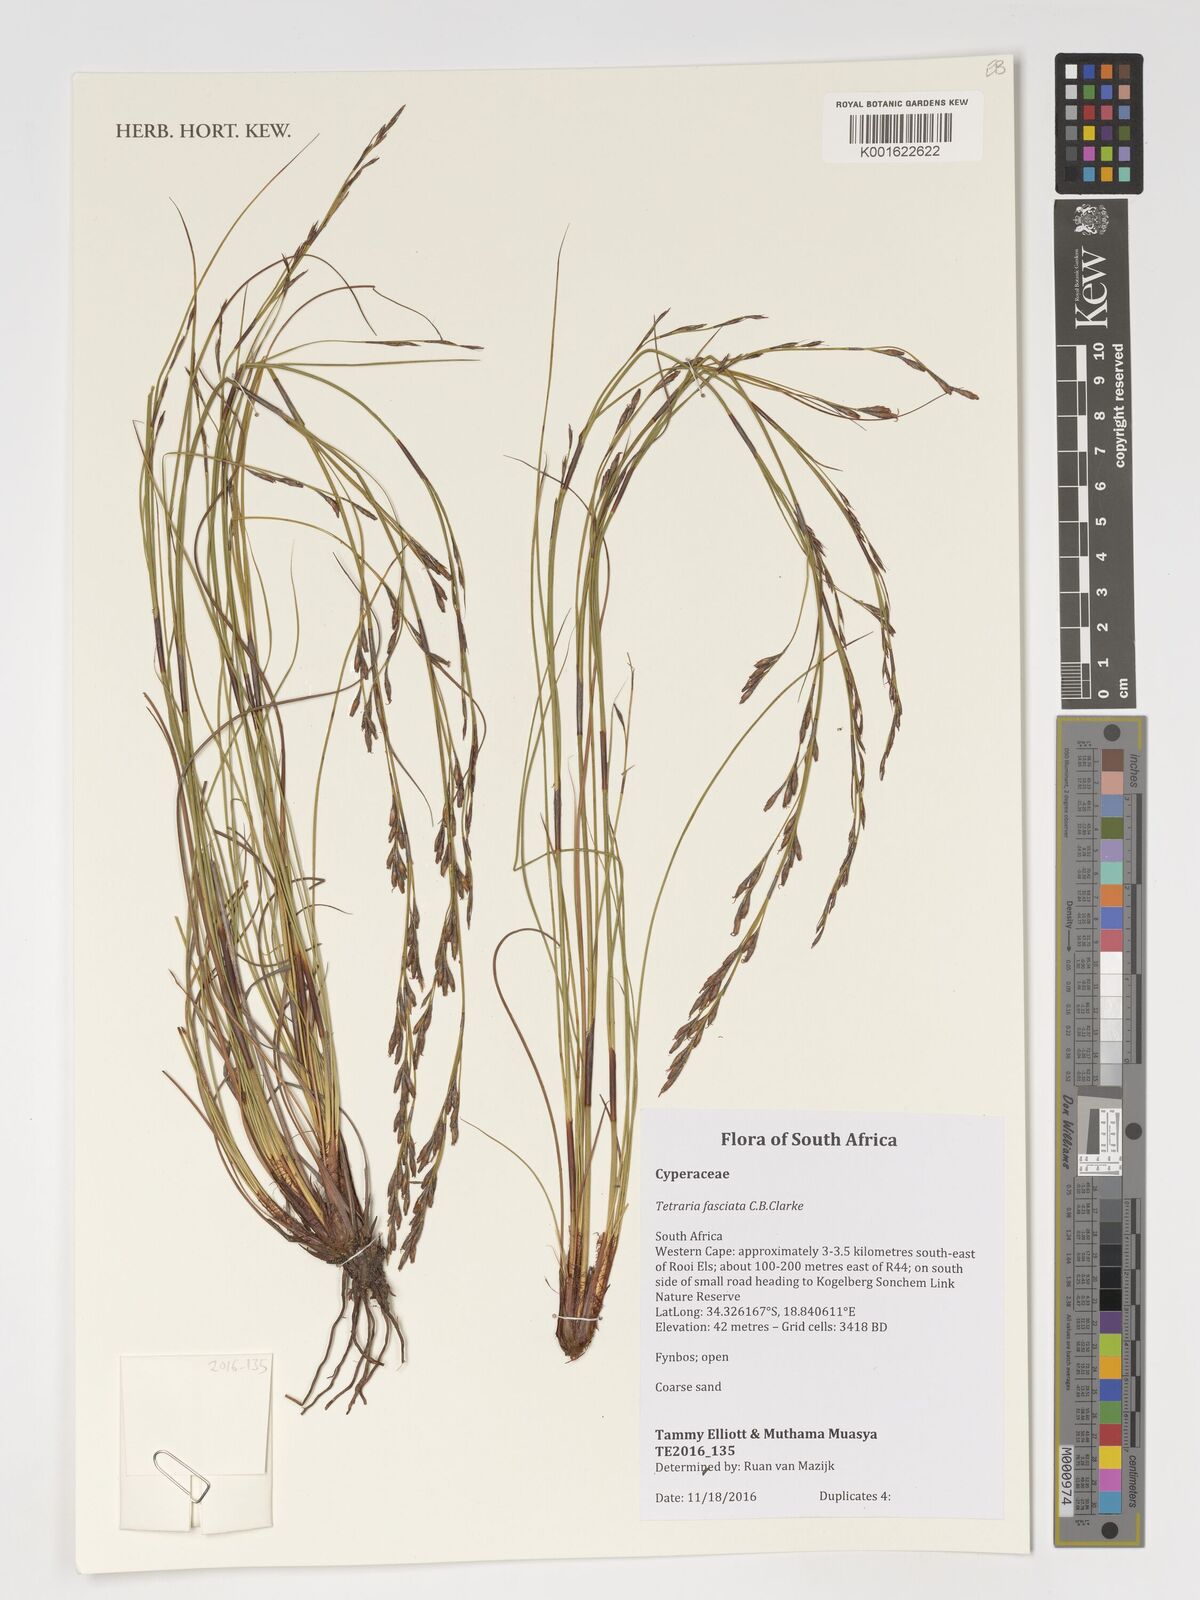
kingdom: Plantae
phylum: Tracheophyta
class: Liliopsida
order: Poales
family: Cyperaceae
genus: Tetraria
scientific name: Tetraria fasciata
